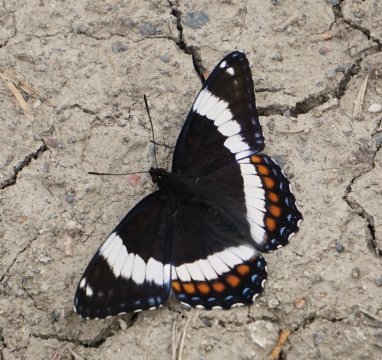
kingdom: Animalia
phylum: Arthropoda
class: Insecta
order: Lepidoptera
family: Nymphalidae
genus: Limenitis
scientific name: Limenitis arthemis
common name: Red-spotted Admiral
